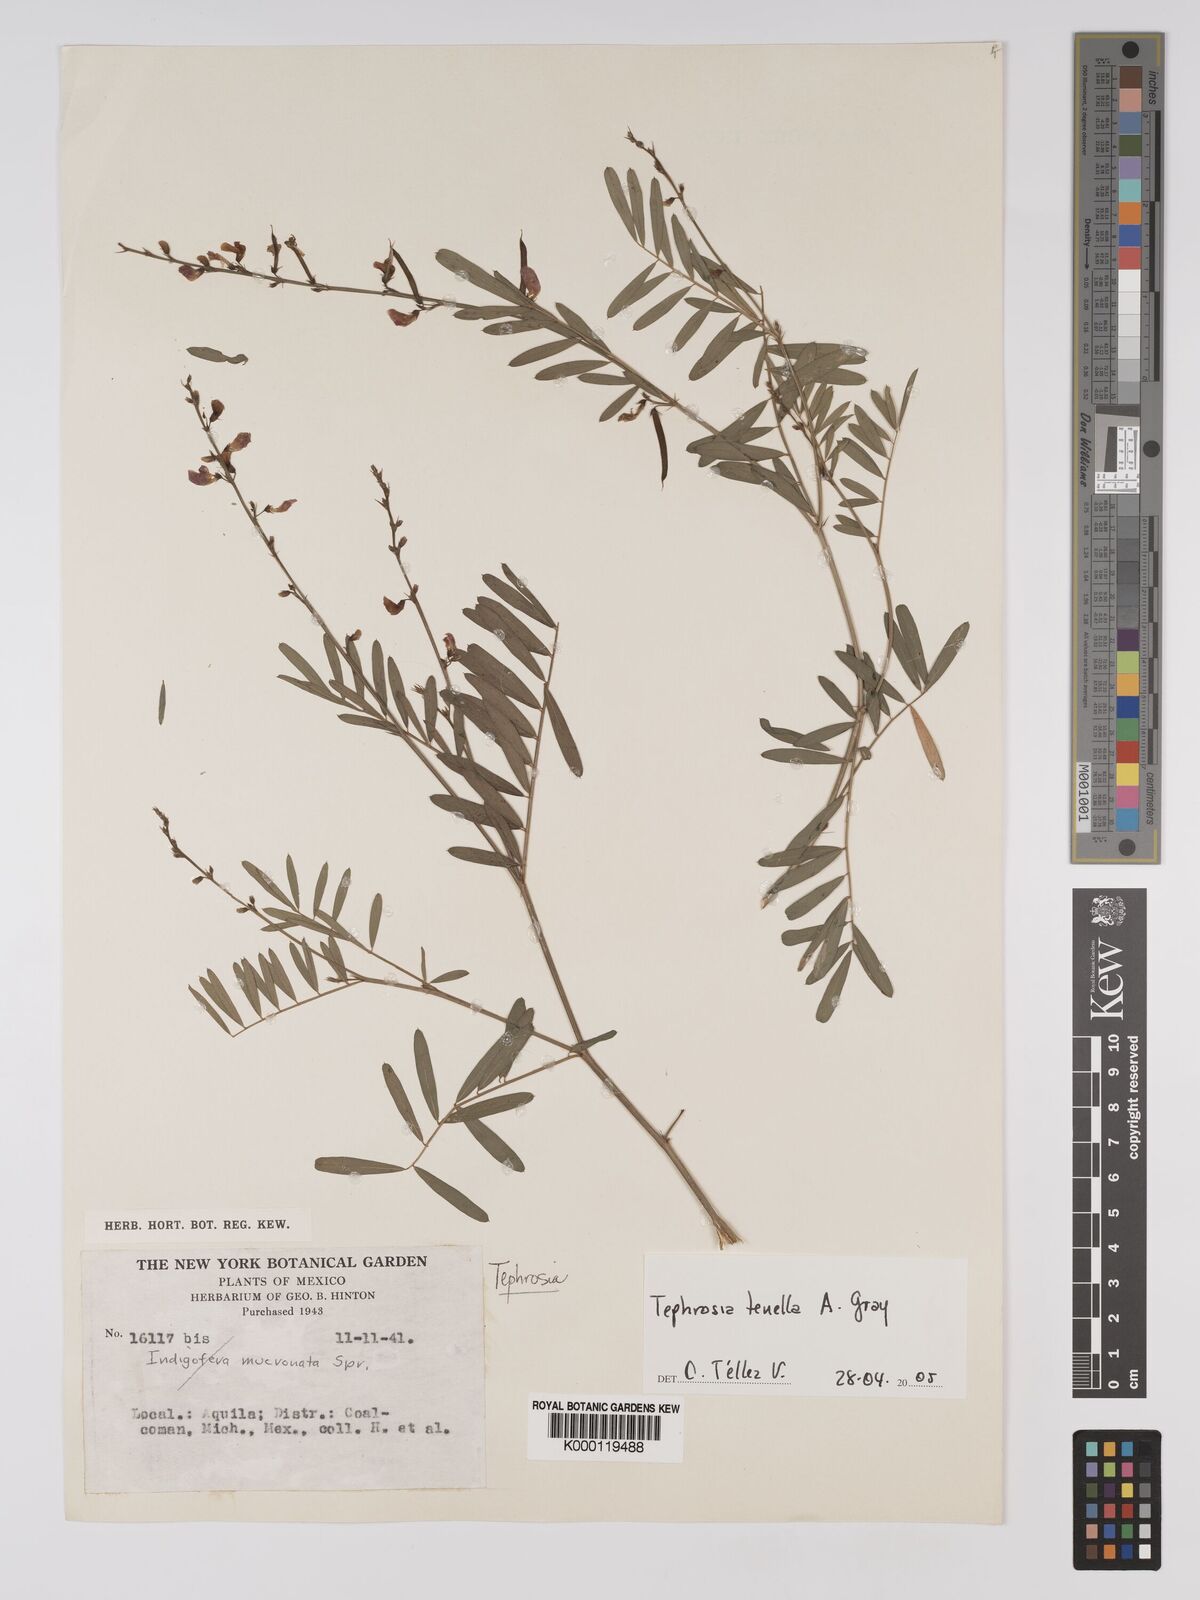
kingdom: Plantae
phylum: Tracheophyta
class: Magnoliopsida
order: Fabales
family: Fabaceae
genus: Tephrosia
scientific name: Tephrosia domingensis
